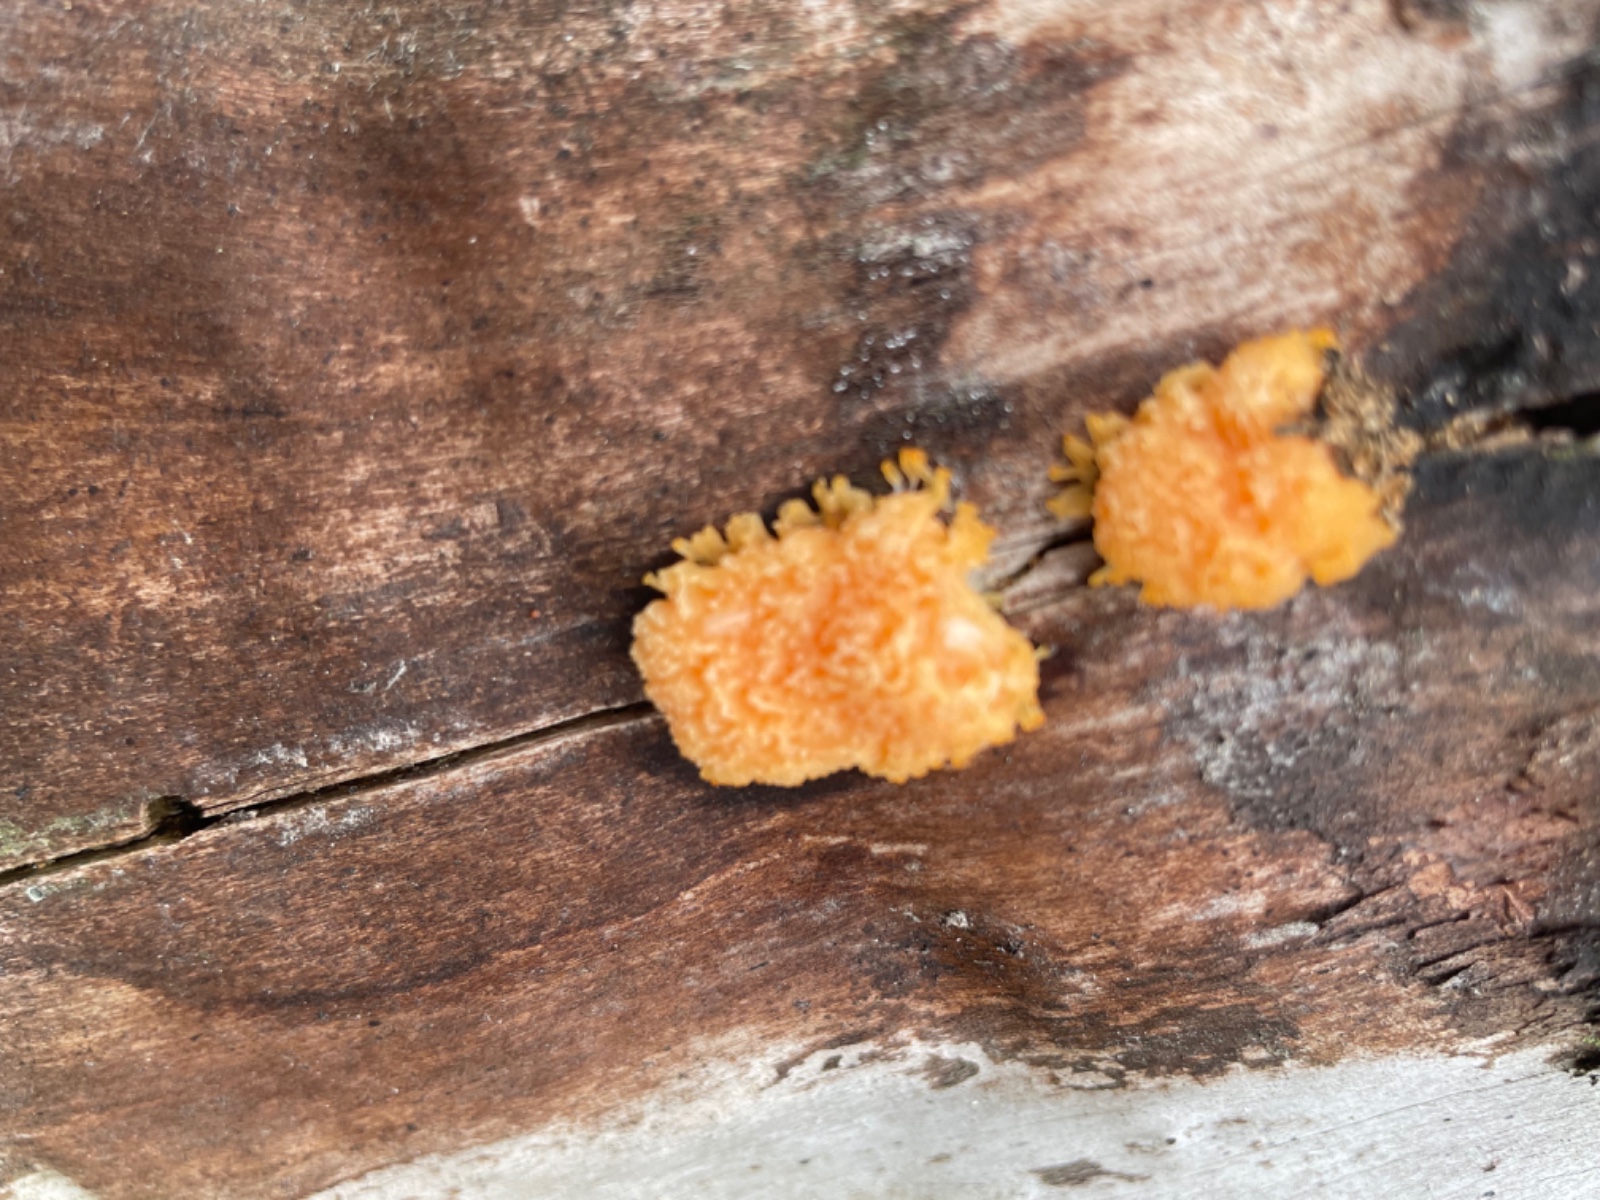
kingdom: Protozoa
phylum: Mycetozoa
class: Myxomycetes
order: Cribrariales
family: Tubiferaceae
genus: Tubifera
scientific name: Tubifera ferruginosa
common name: kanel-støvrør
